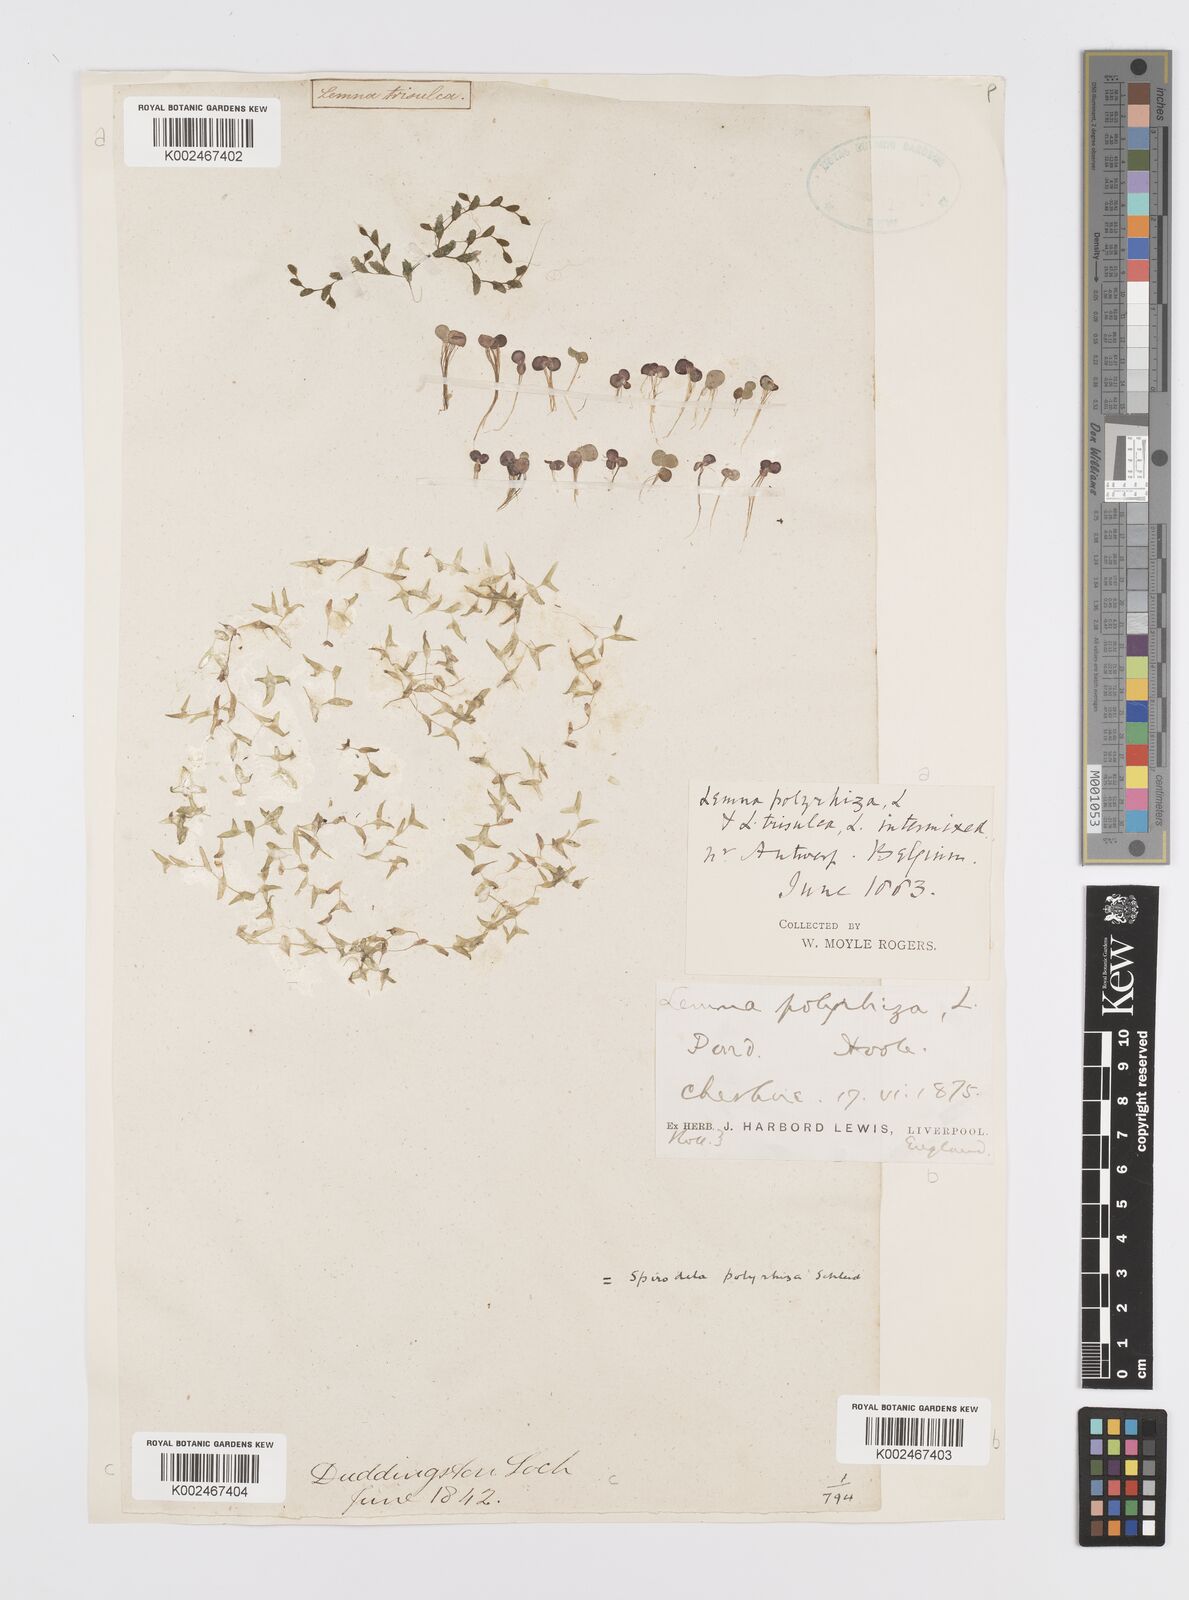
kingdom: Plantae
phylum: Tracheophyta
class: Liliopsida
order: Alismatales
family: Araceae
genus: Spirodela
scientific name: Spirodela polyrhiza
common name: Great duckweed
